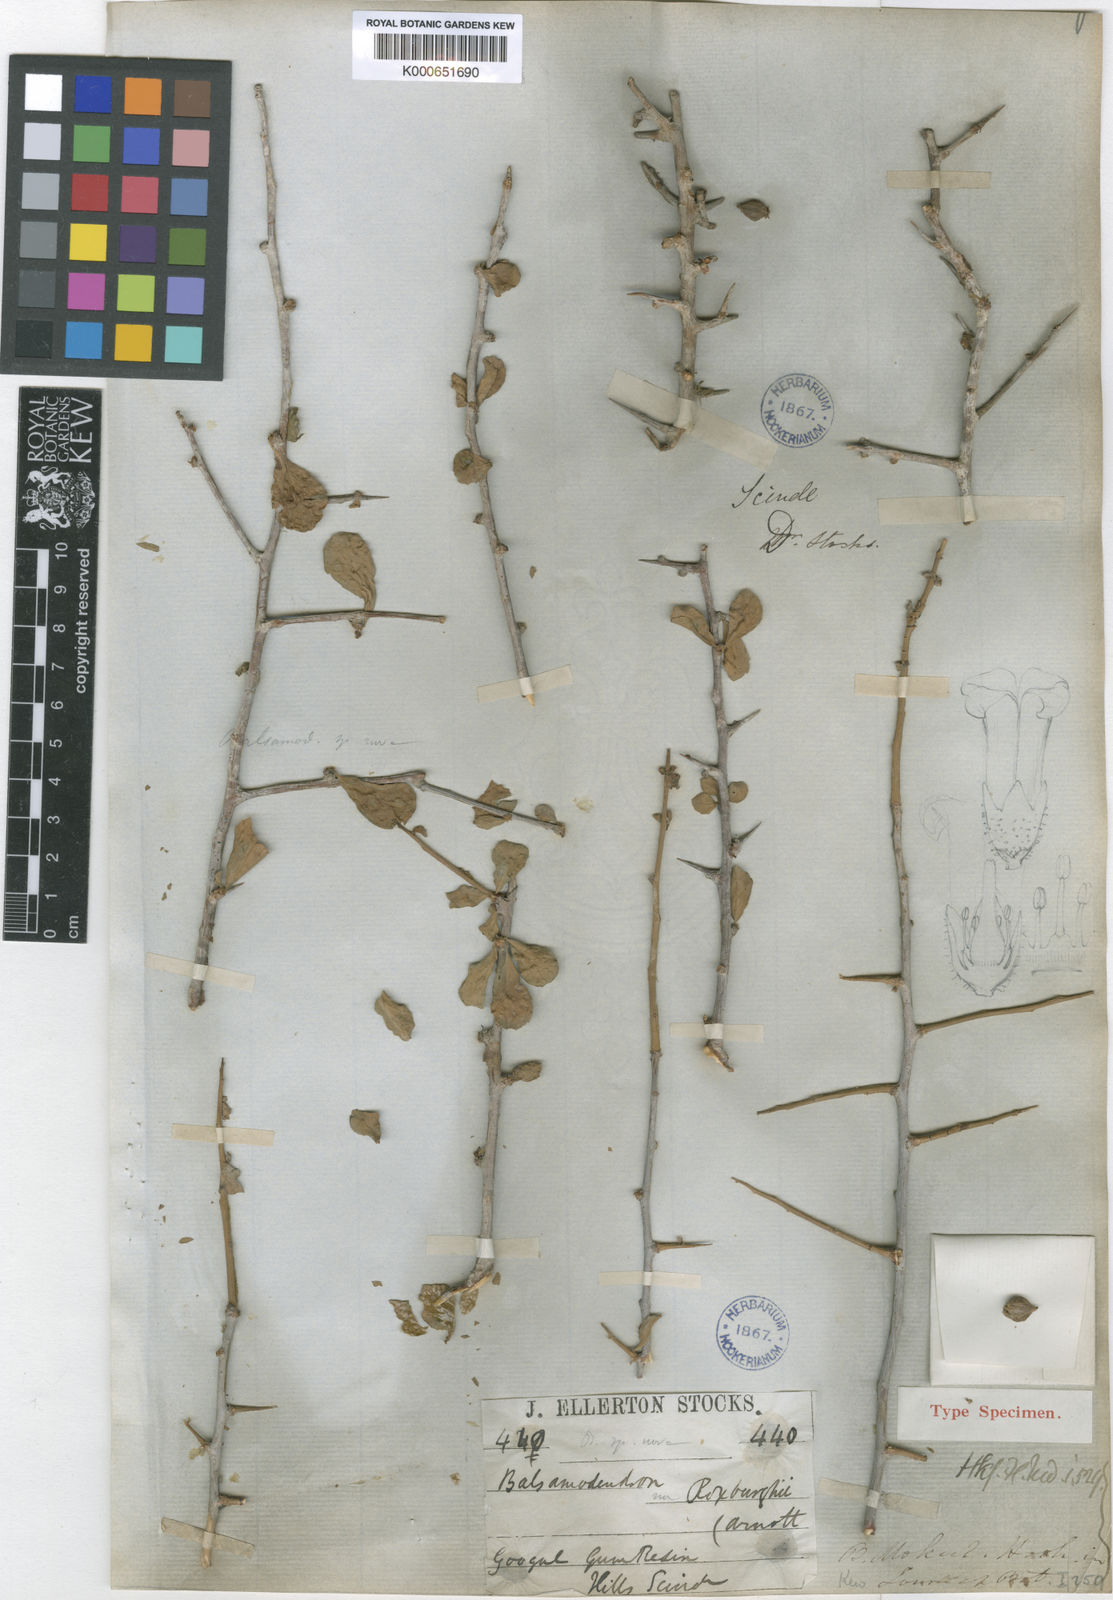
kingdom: Plantae
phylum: Tracheophyta
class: Magnoliopsida
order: Sapindales
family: Burseraceae
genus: Commiphora
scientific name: Commiphora wightii
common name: Indian bdellium-tree
